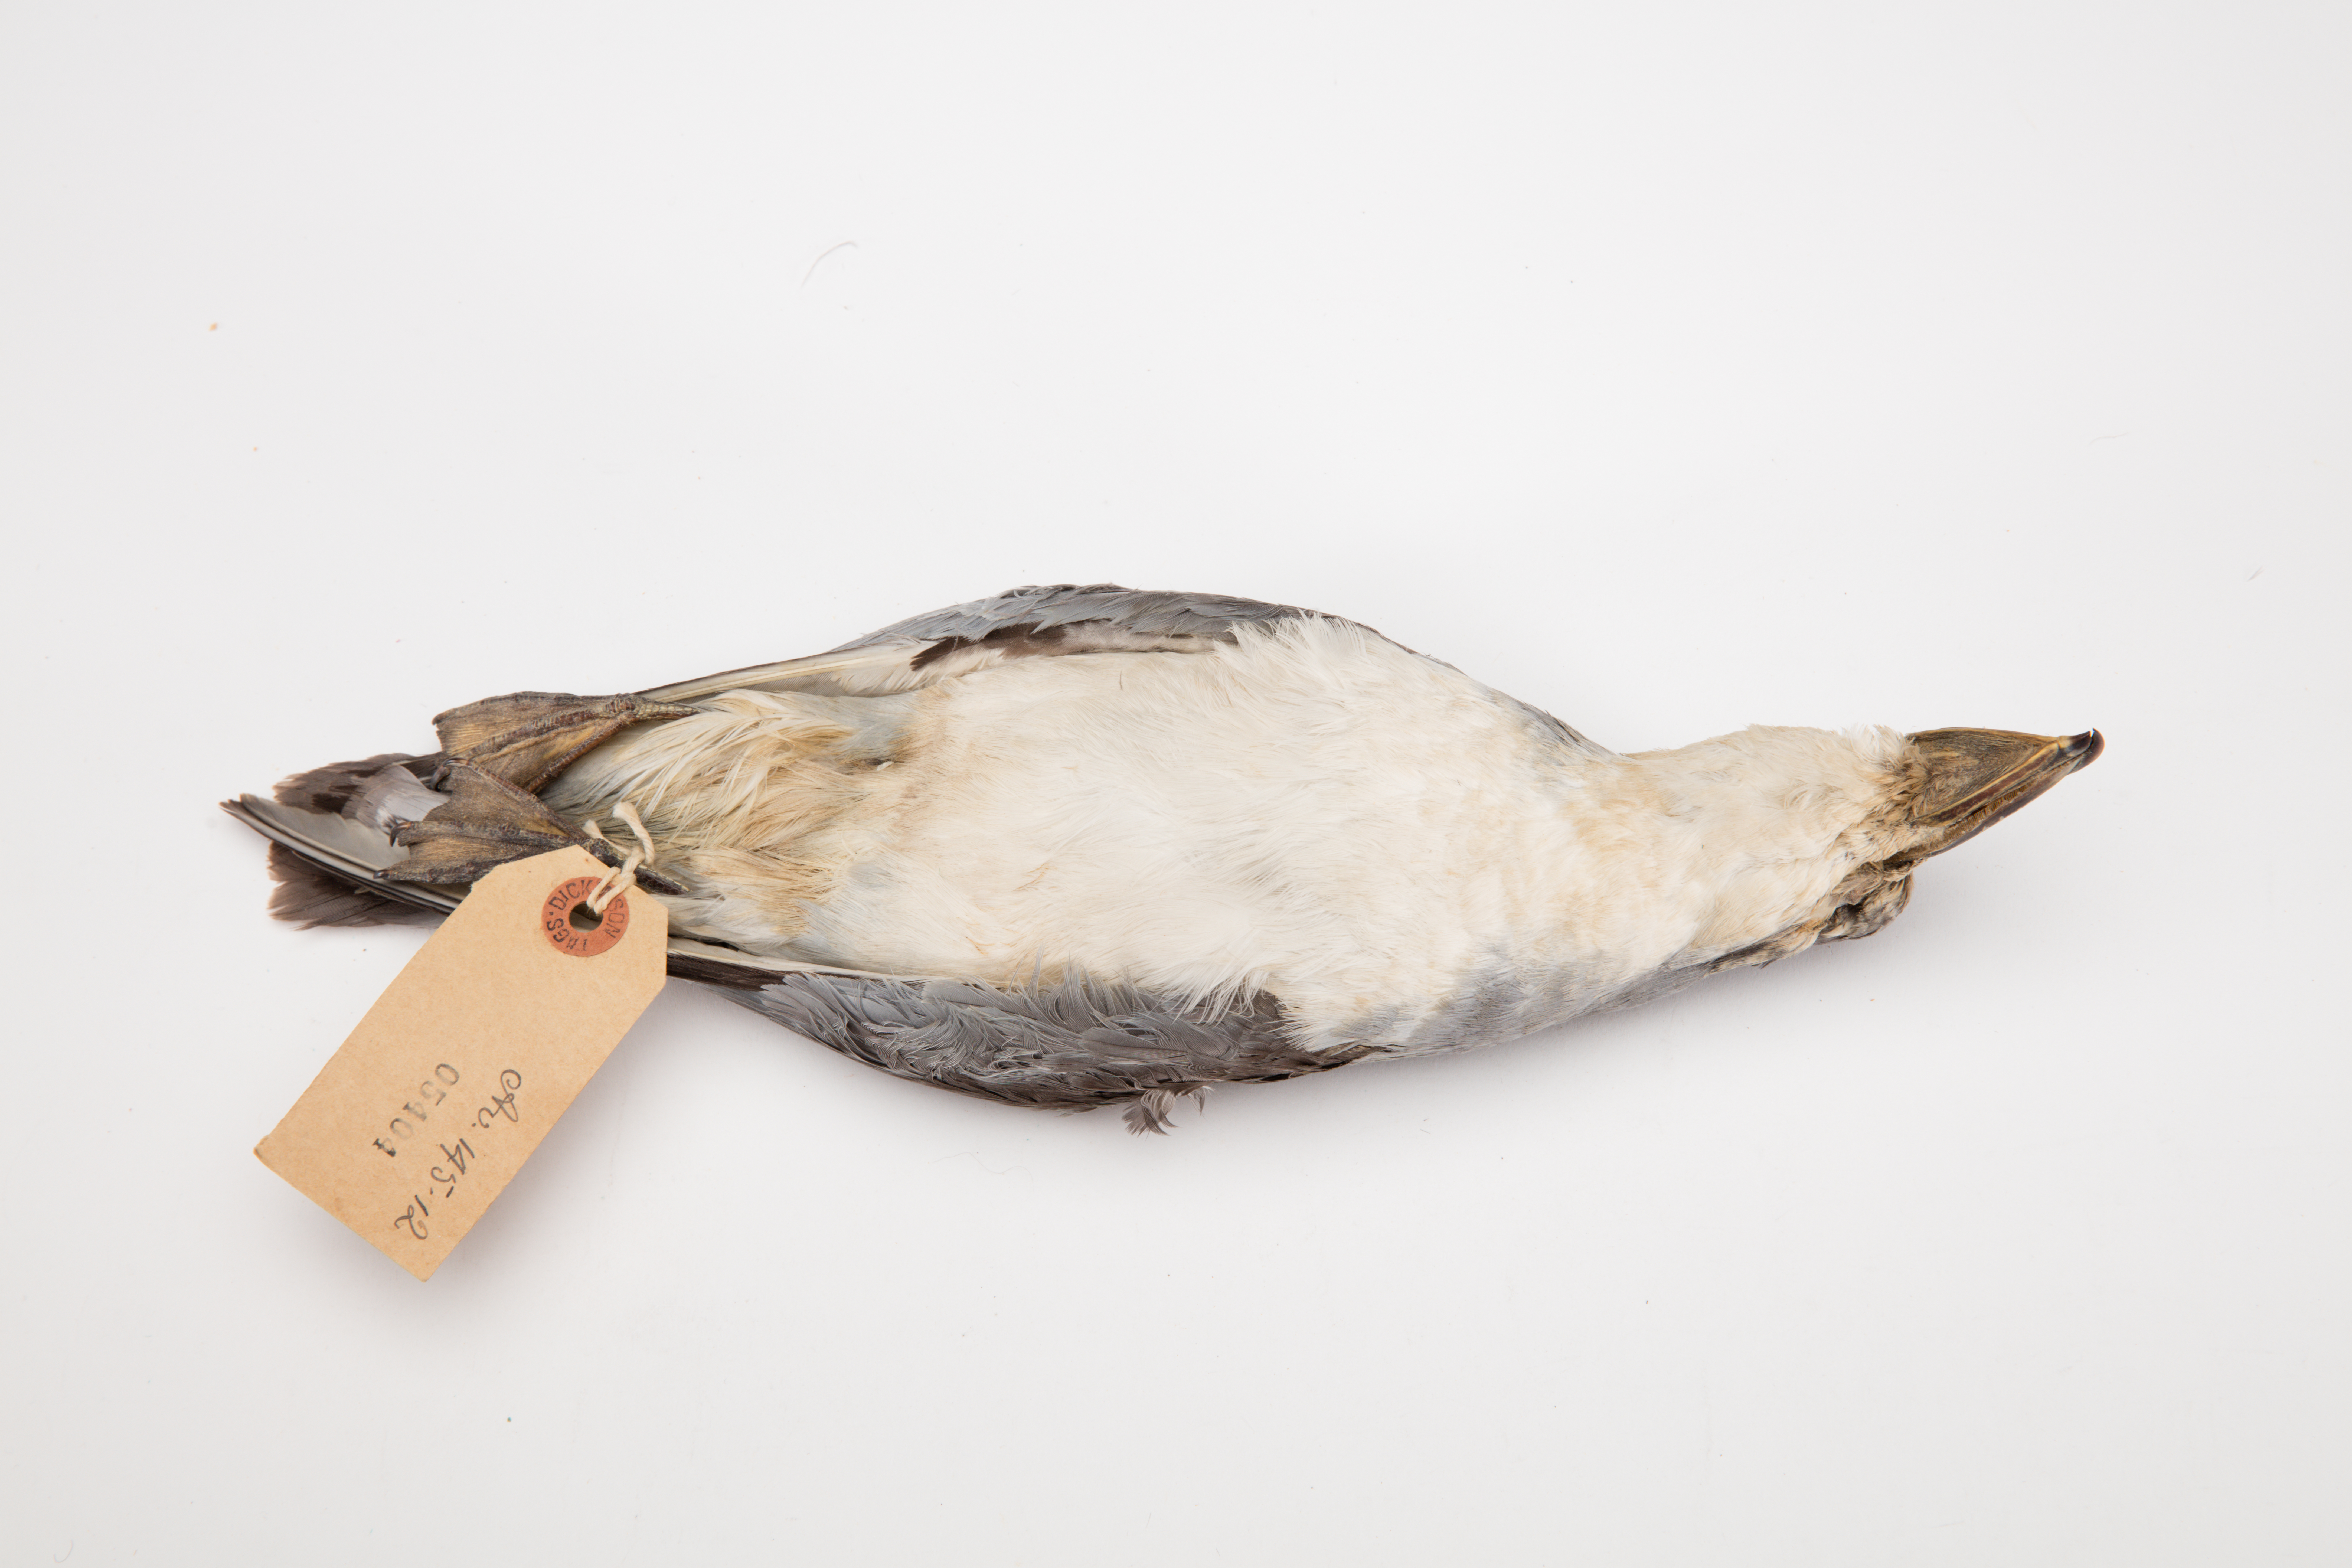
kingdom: Animalia
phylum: Chordata
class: Aves
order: Procellariiformes
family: Procellariidae
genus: Pachyptila
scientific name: Pachyptila vittata
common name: Broad-billed prion
